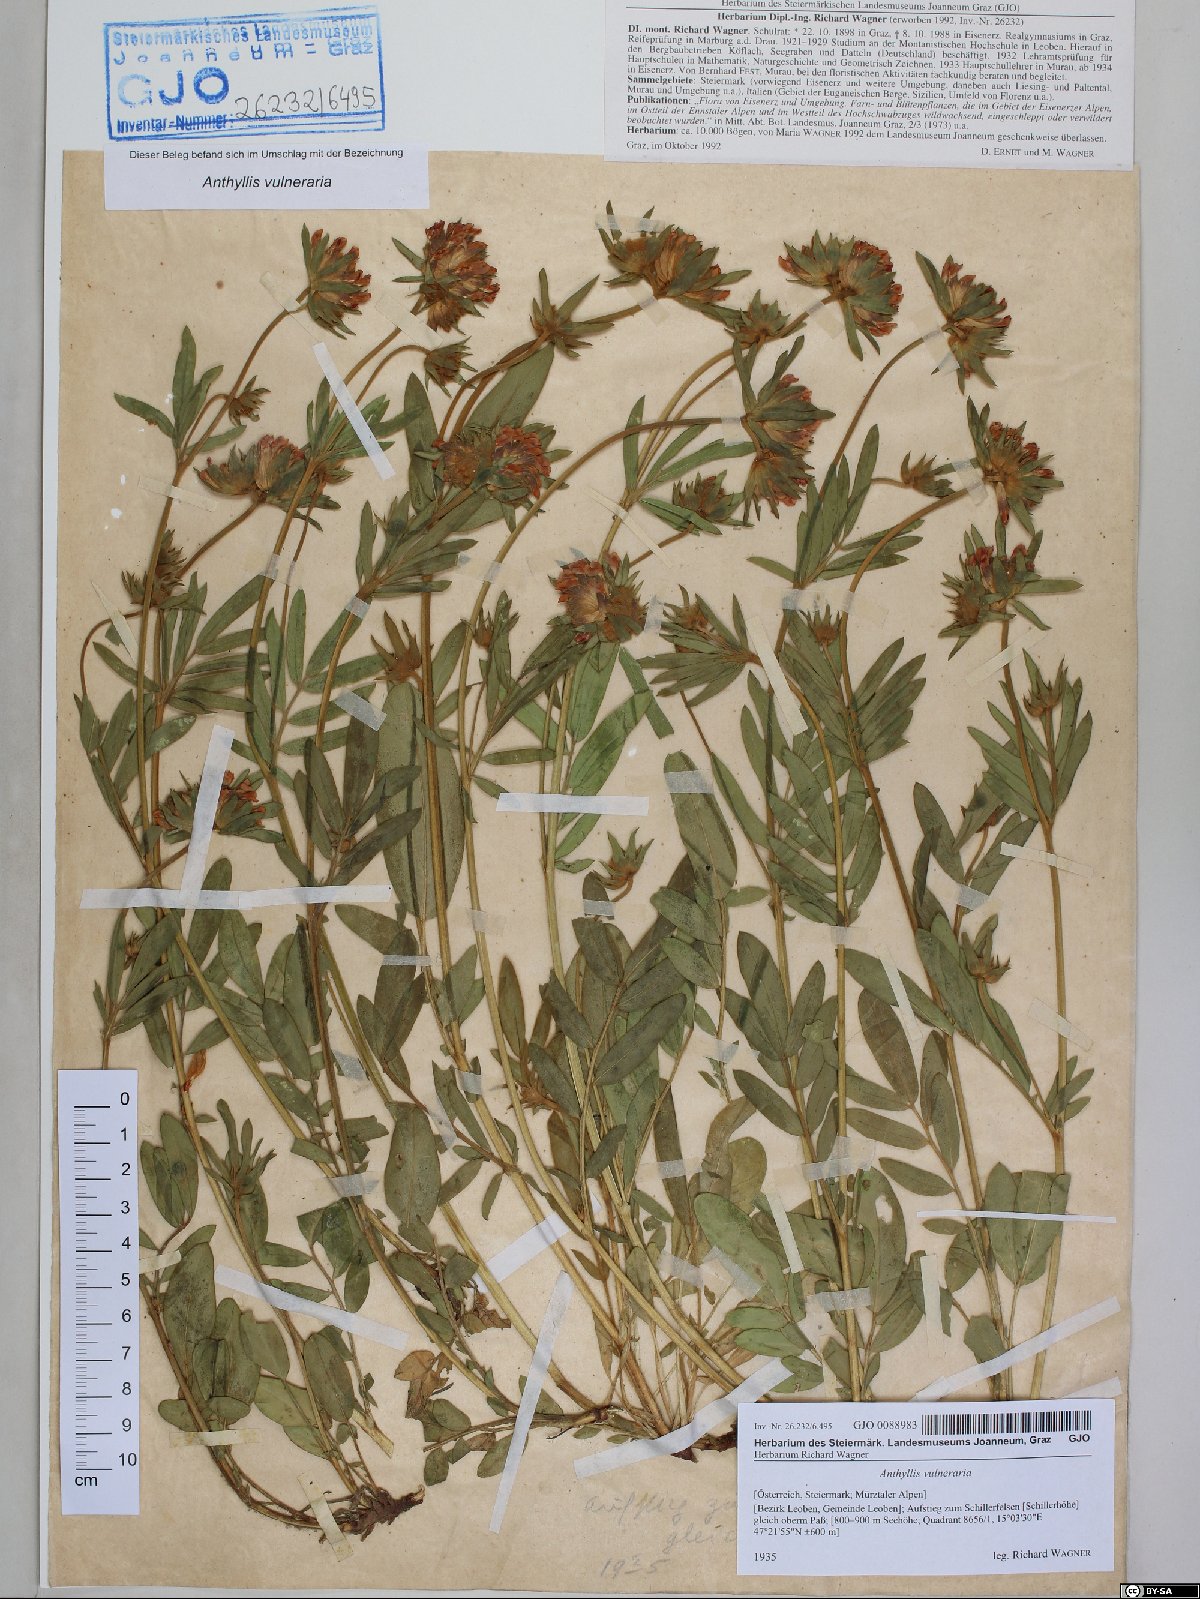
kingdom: Plantae
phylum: Tracheophyta
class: Magnoliopsida
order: Fabales
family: Fabaceae
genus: Anthyllis
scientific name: Anthyllis vulneraria
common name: Kidney vetch
